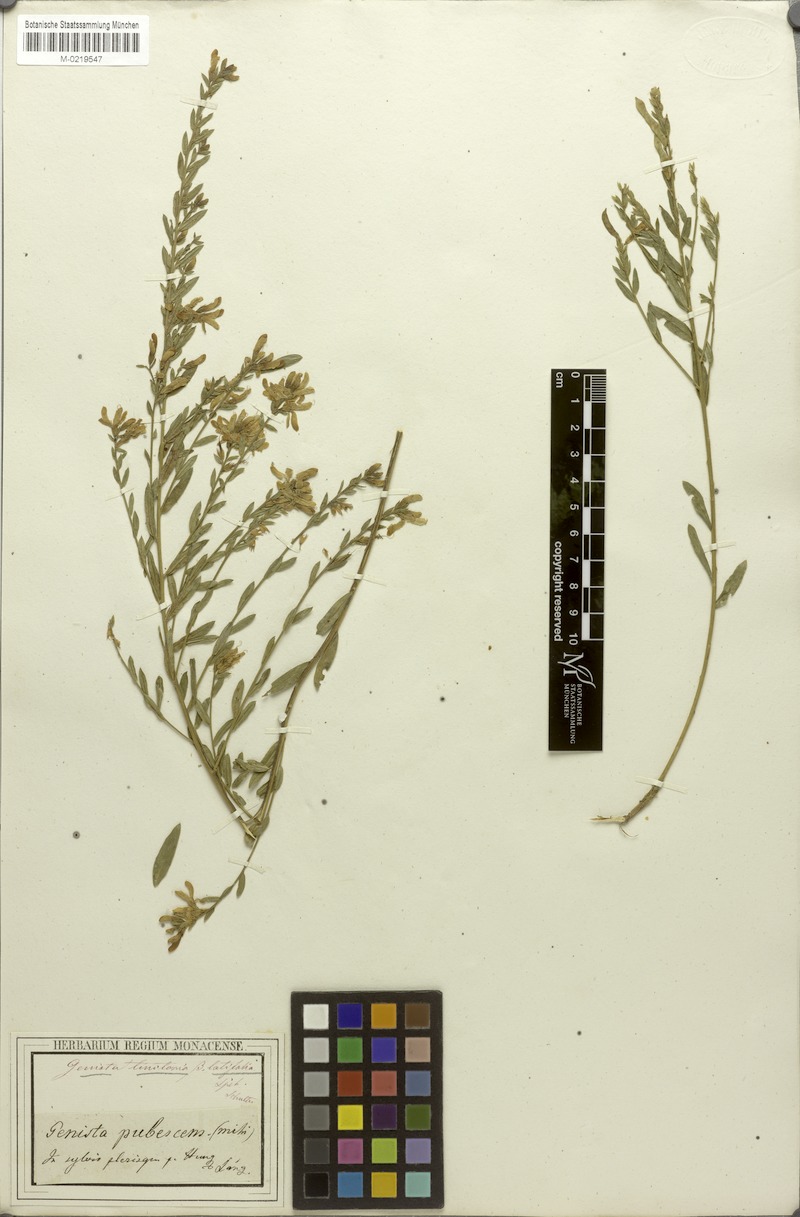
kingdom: Plantae
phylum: Tracheophyta
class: Magnoliopsida
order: Fabales
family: Fabaceae
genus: Genista
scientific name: Genista tinctoria
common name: Dyer's greenweed
